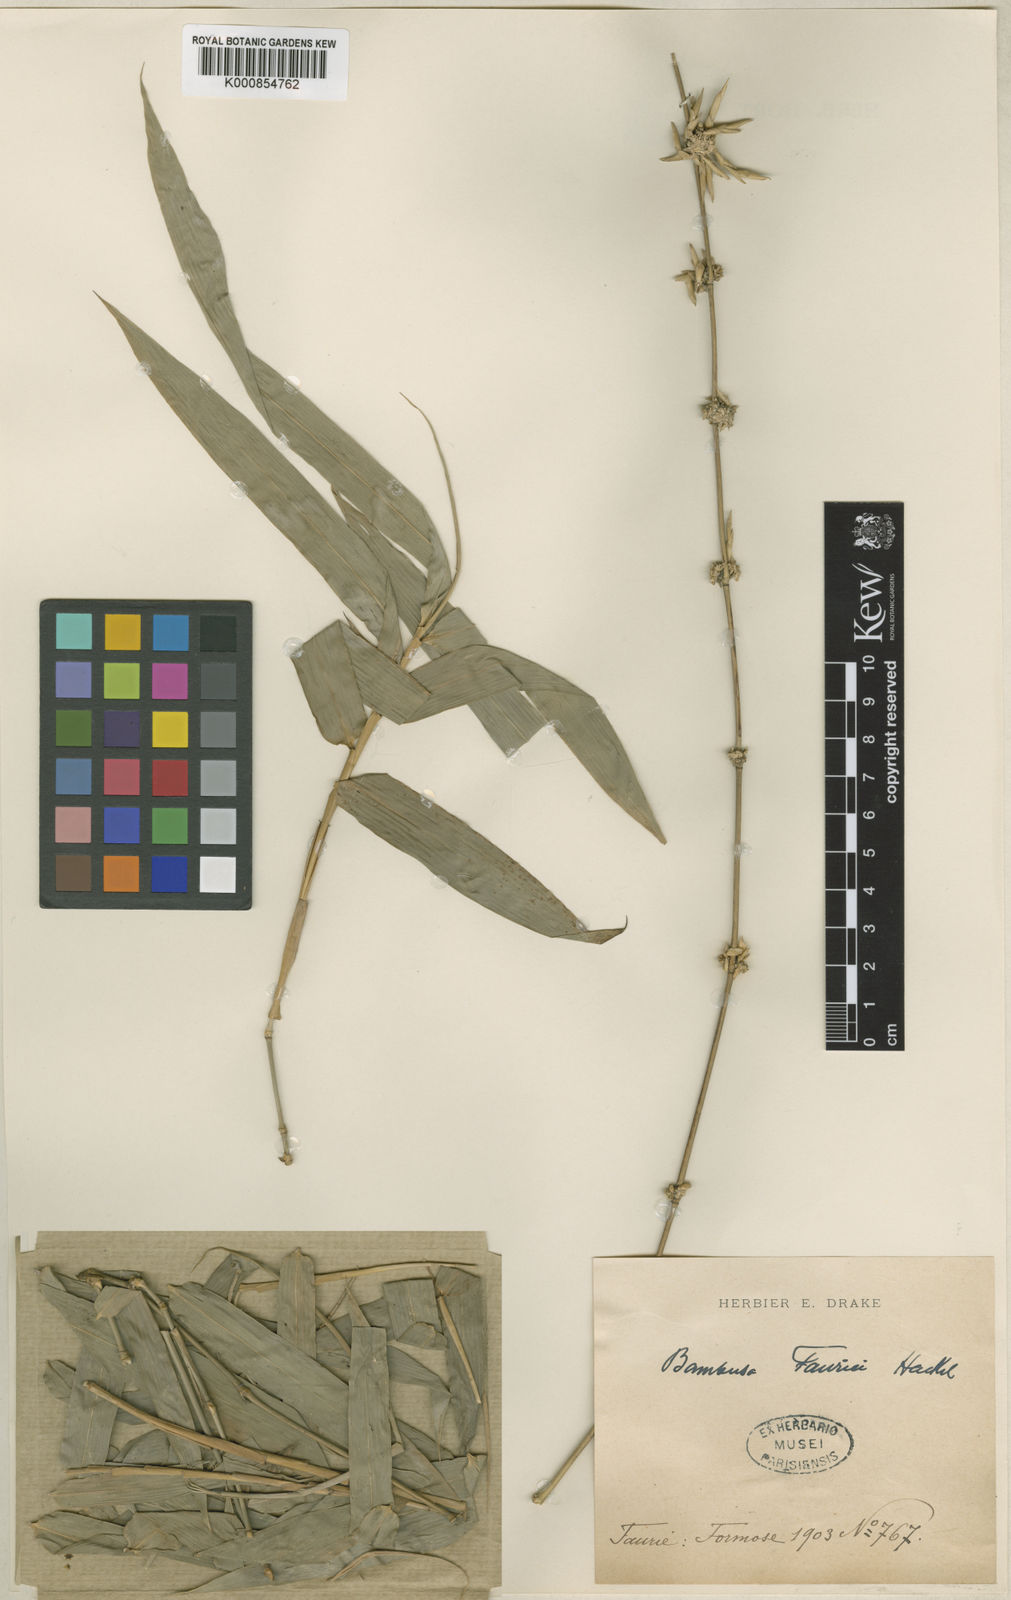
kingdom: Plantae
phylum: Tracheophyta
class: Liliopsida
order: Poales
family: Poaceae
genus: Bambusa
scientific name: Bambusa tuldoides
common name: Verdant bamboo
